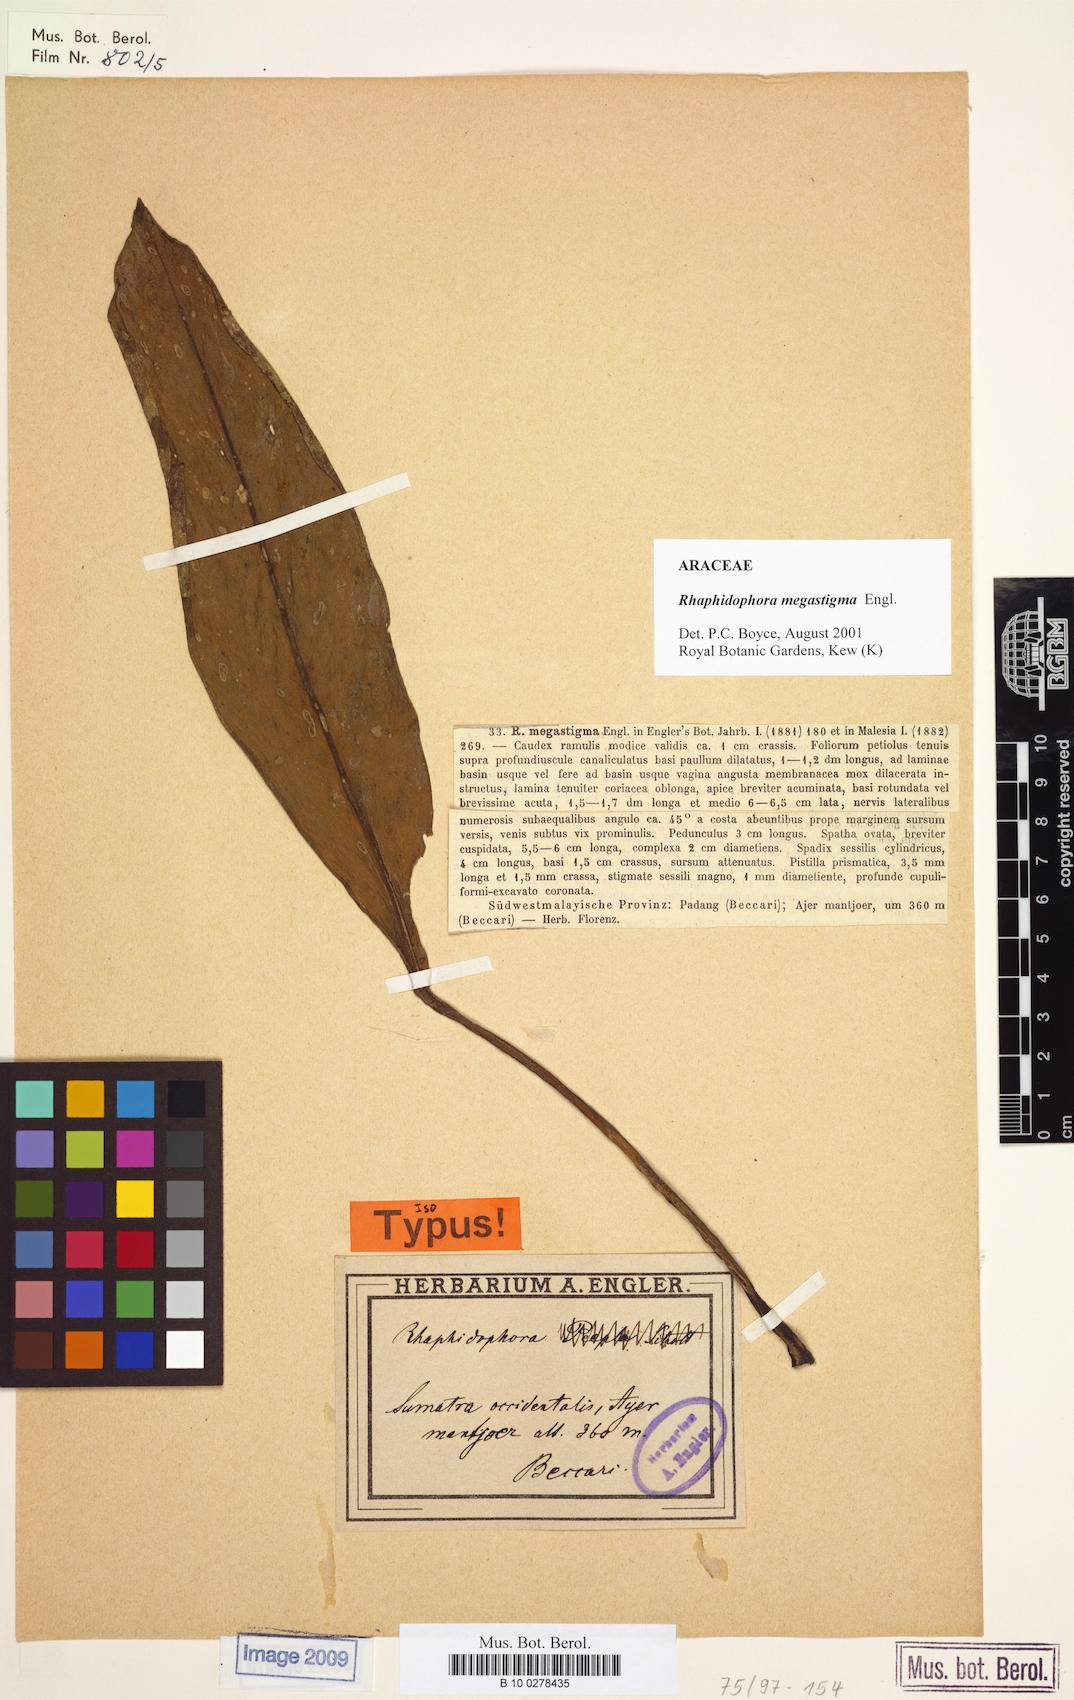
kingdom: Plantae
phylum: Tracheophyta
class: Liliopsida
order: Alismatales
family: Araceae
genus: Rhaphidophora
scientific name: Rhaphidophora megastigma
